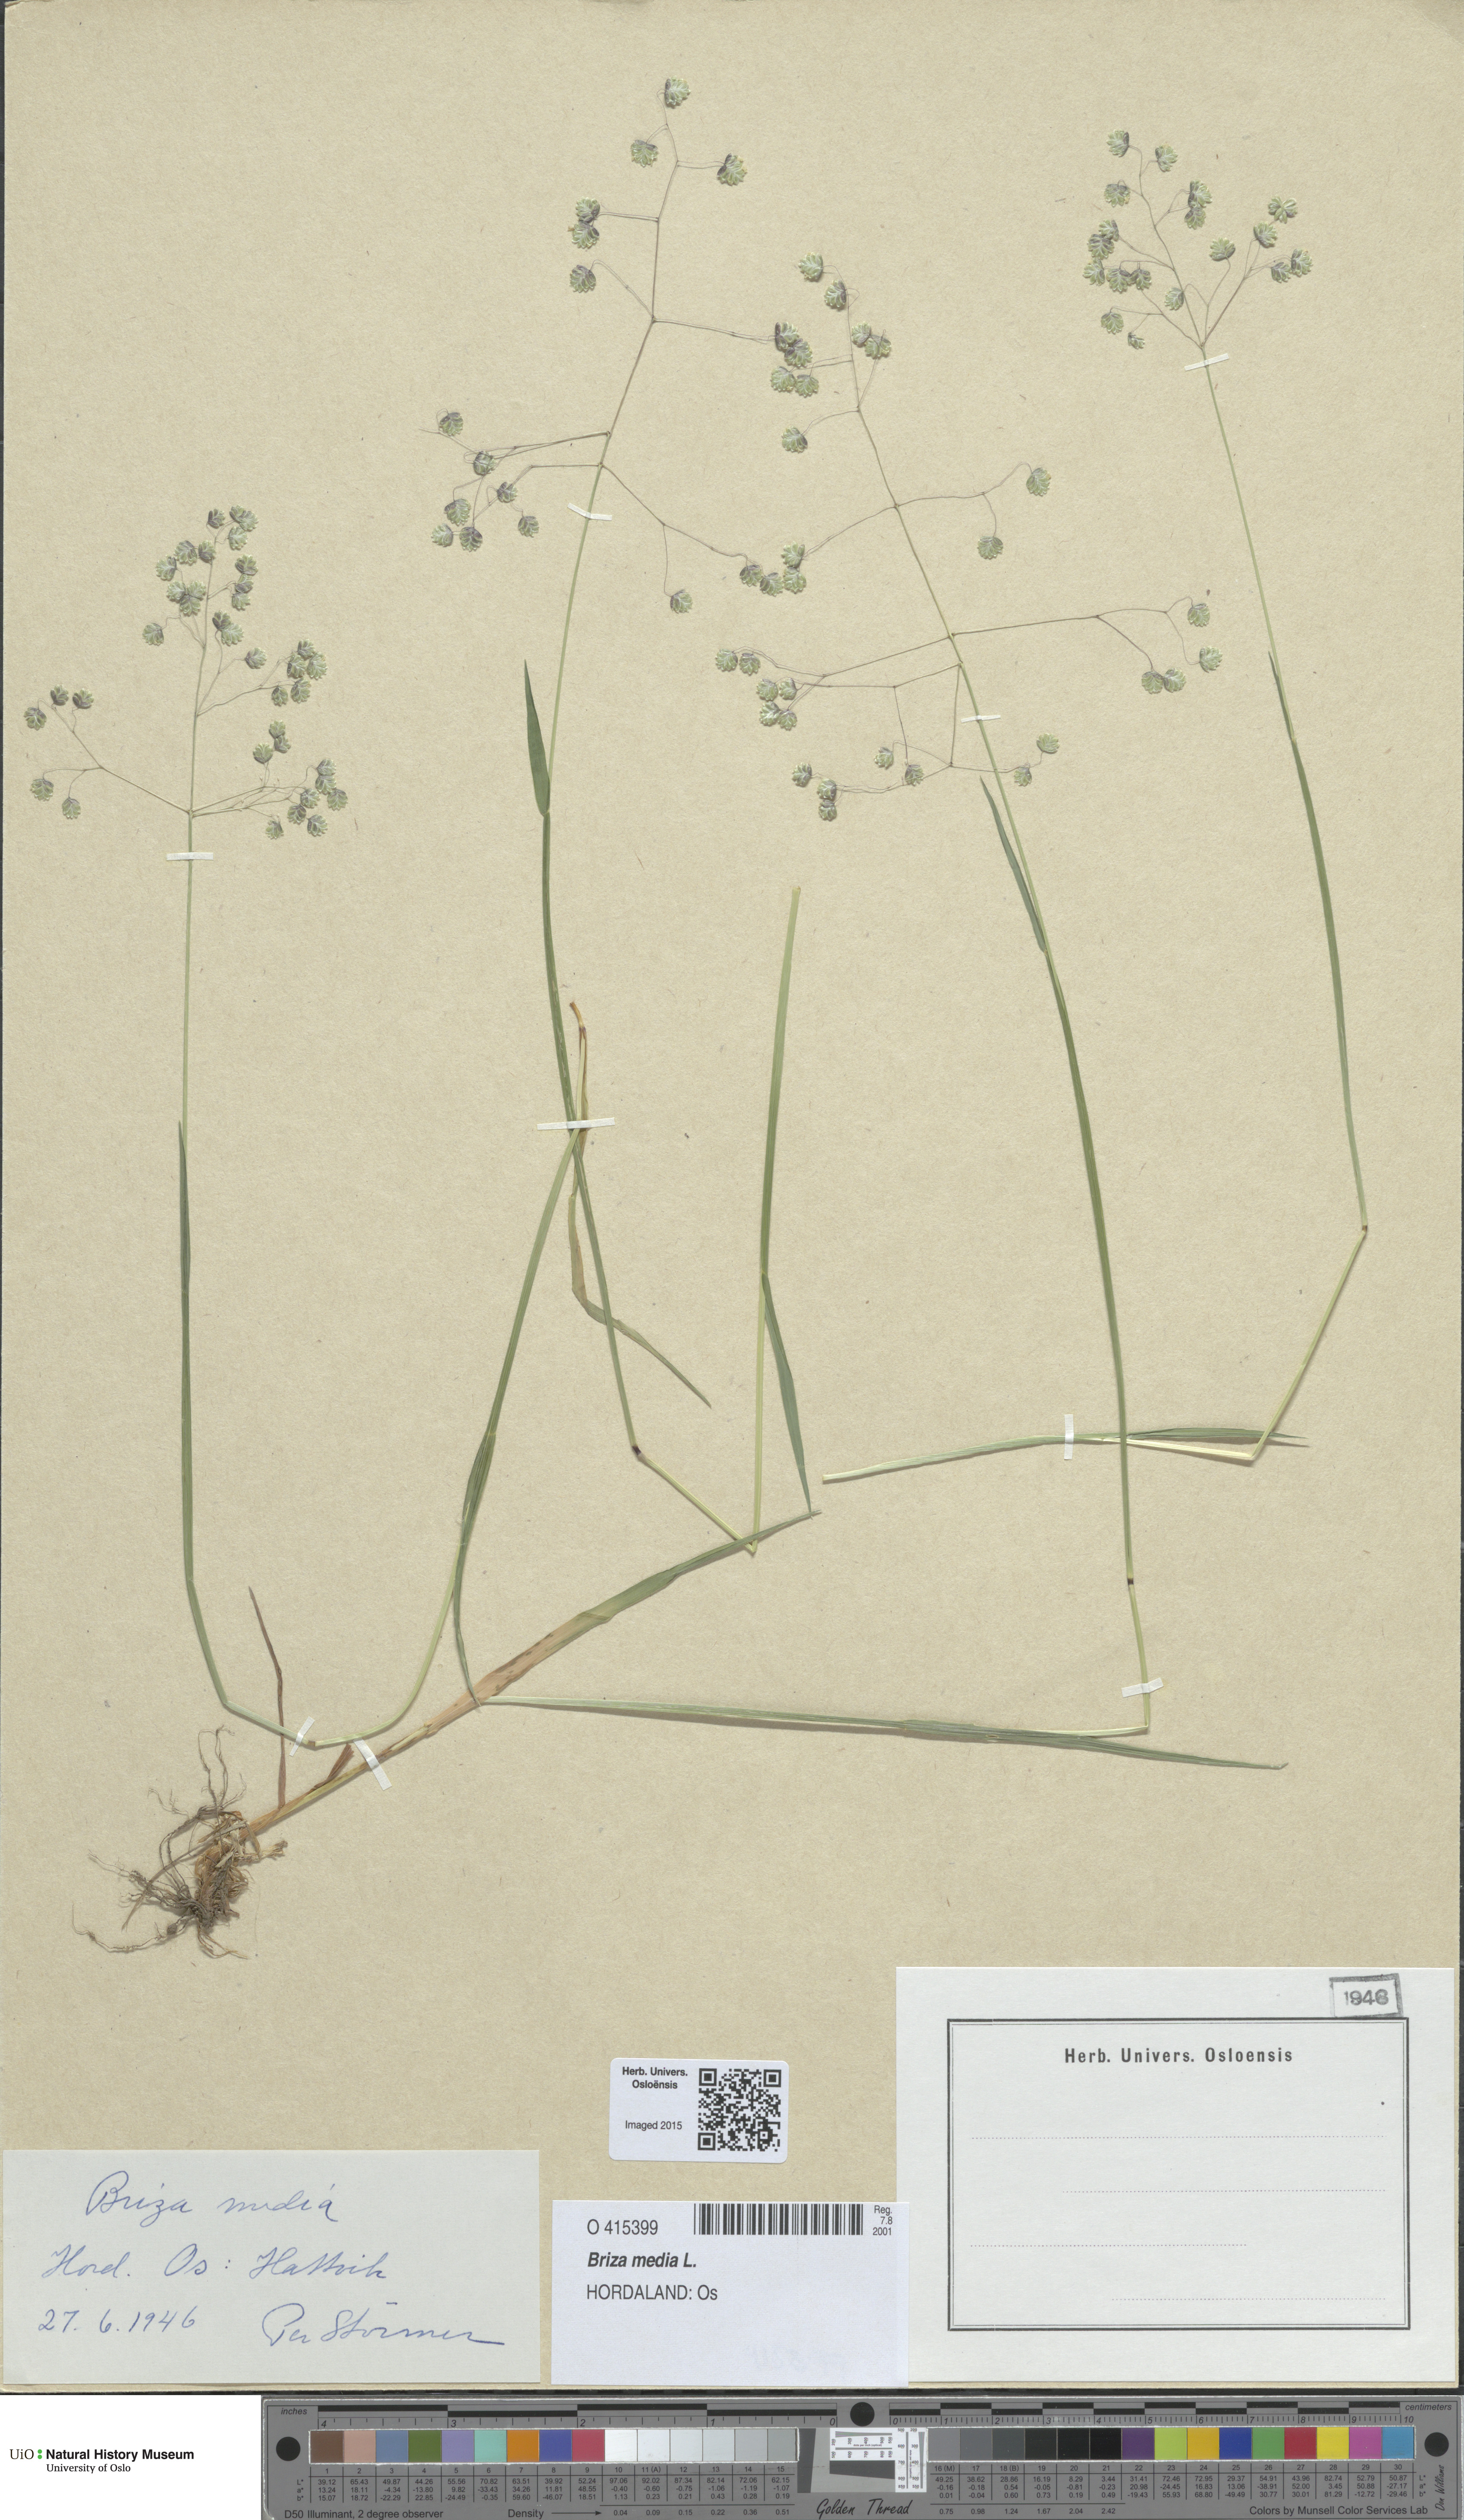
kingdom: Plantae
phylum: Tracheophyta
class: Liliopsida
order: Poales
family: Poaceae
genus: Briza
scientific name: Briza media
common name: Quaking grass
